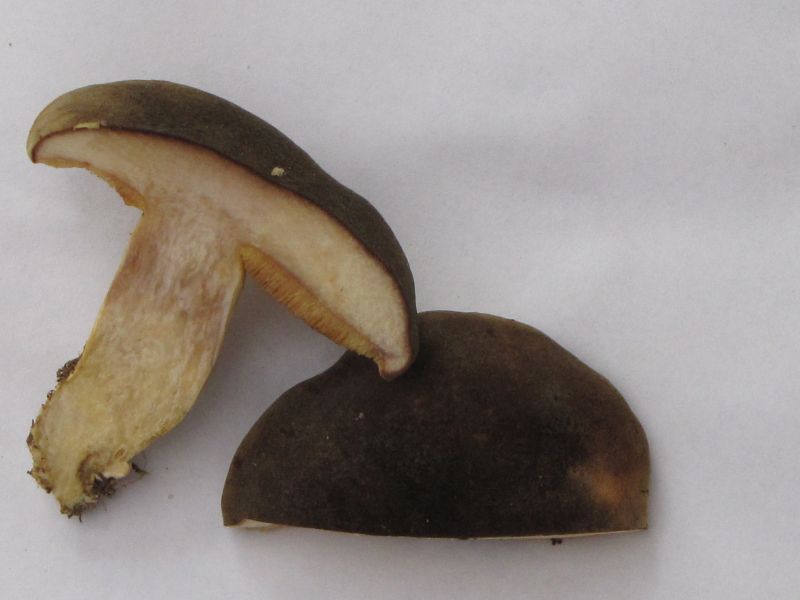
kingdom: Fungi
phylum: Basidiomycota
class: Agaricomycetes
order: Boletales
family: Boletaceae
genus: Xerocomus
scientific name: Xerocomus subtomentosus
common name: filtet rørhat
